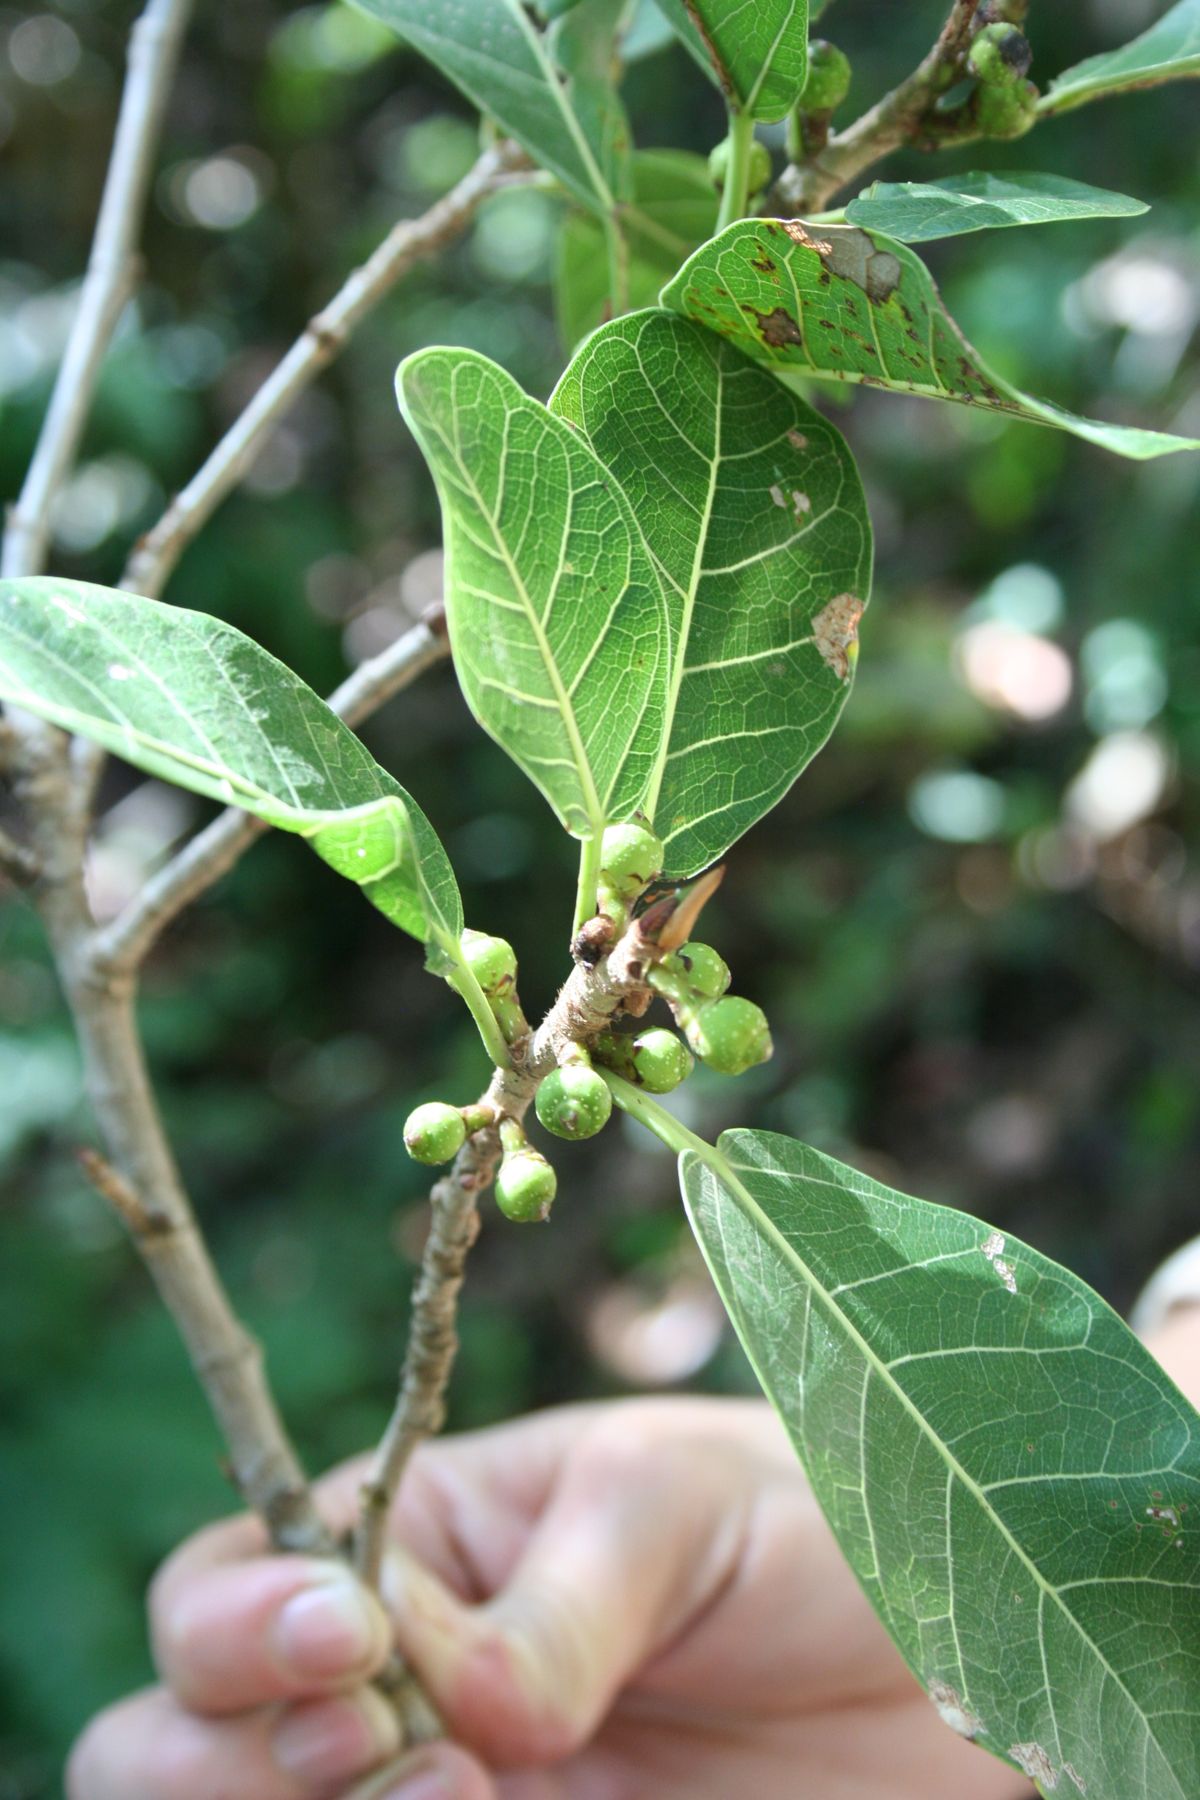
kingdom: Plantae
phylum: Tracheophyta
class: Magnoliopsida
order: Rosales
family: Moraceae
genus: Ficus
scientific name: Ficus crassinervia
